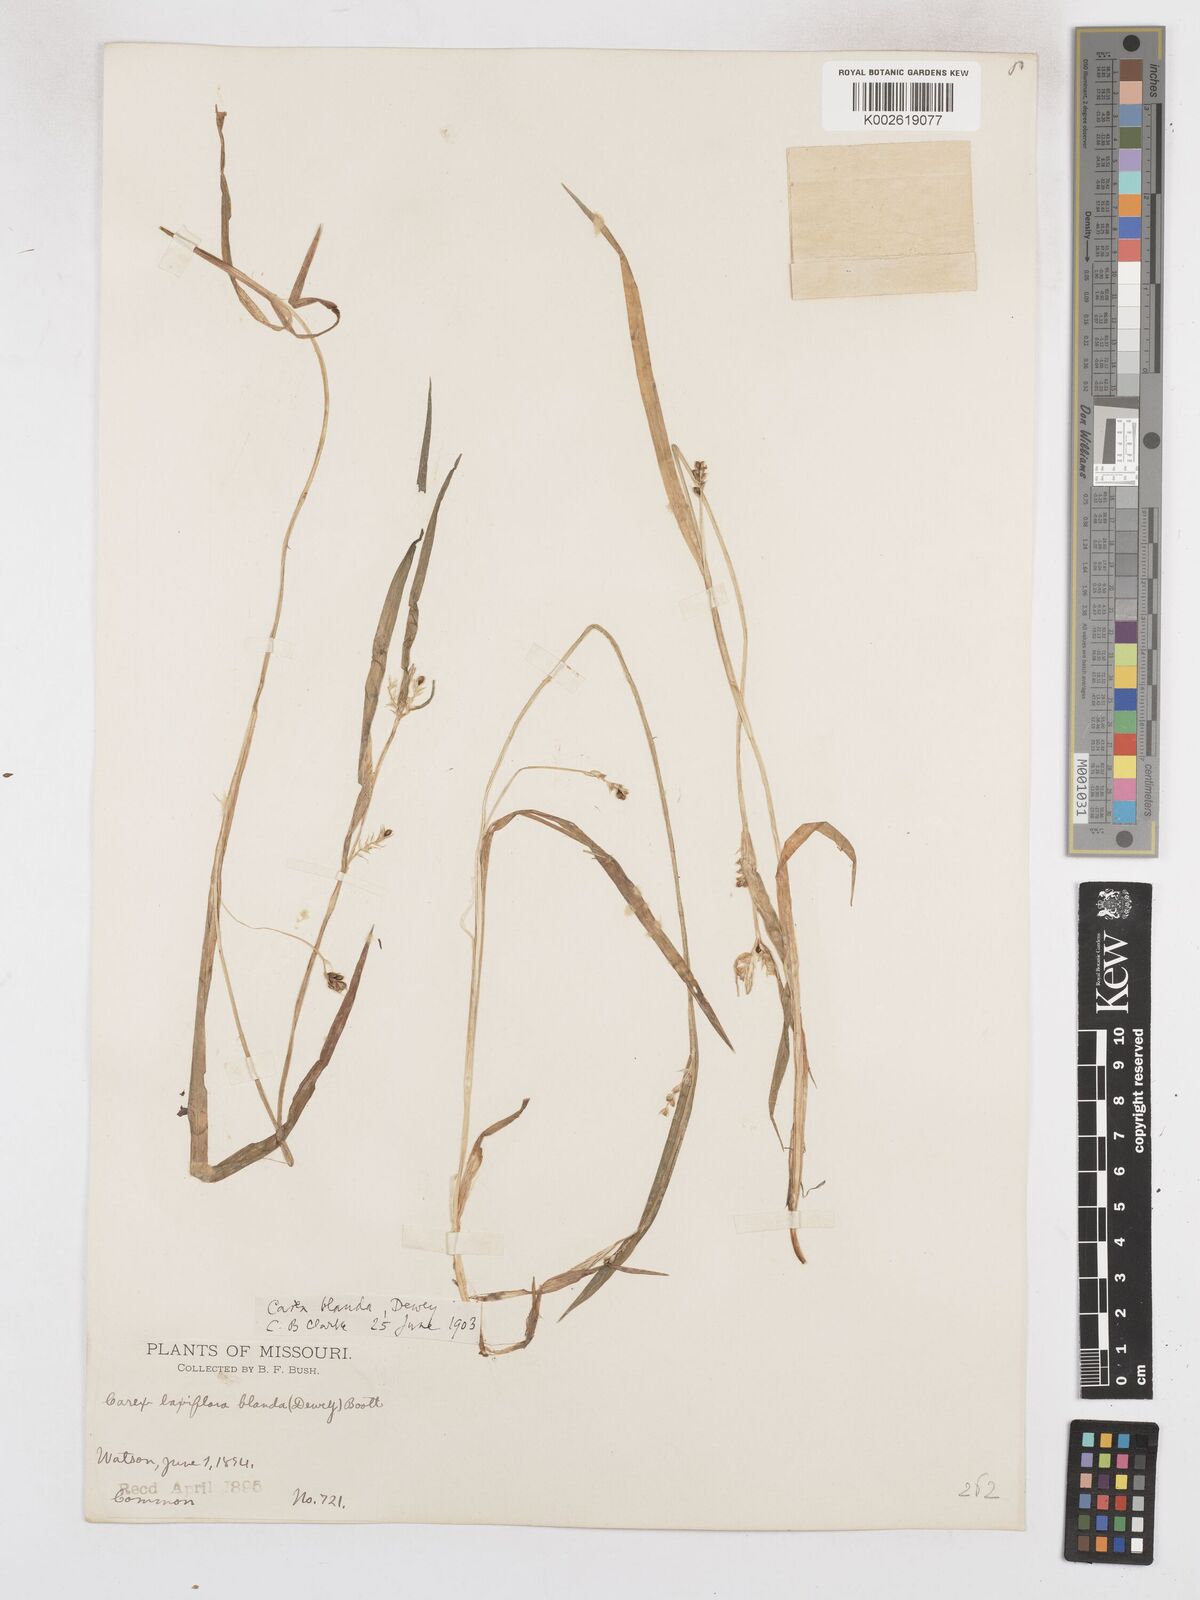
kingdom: Plantae
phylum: Tracheophyta
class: Liliopsida
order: Poales
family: Cyperaceae
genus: Carex
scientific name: Carex blanda
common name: Bland sedge
